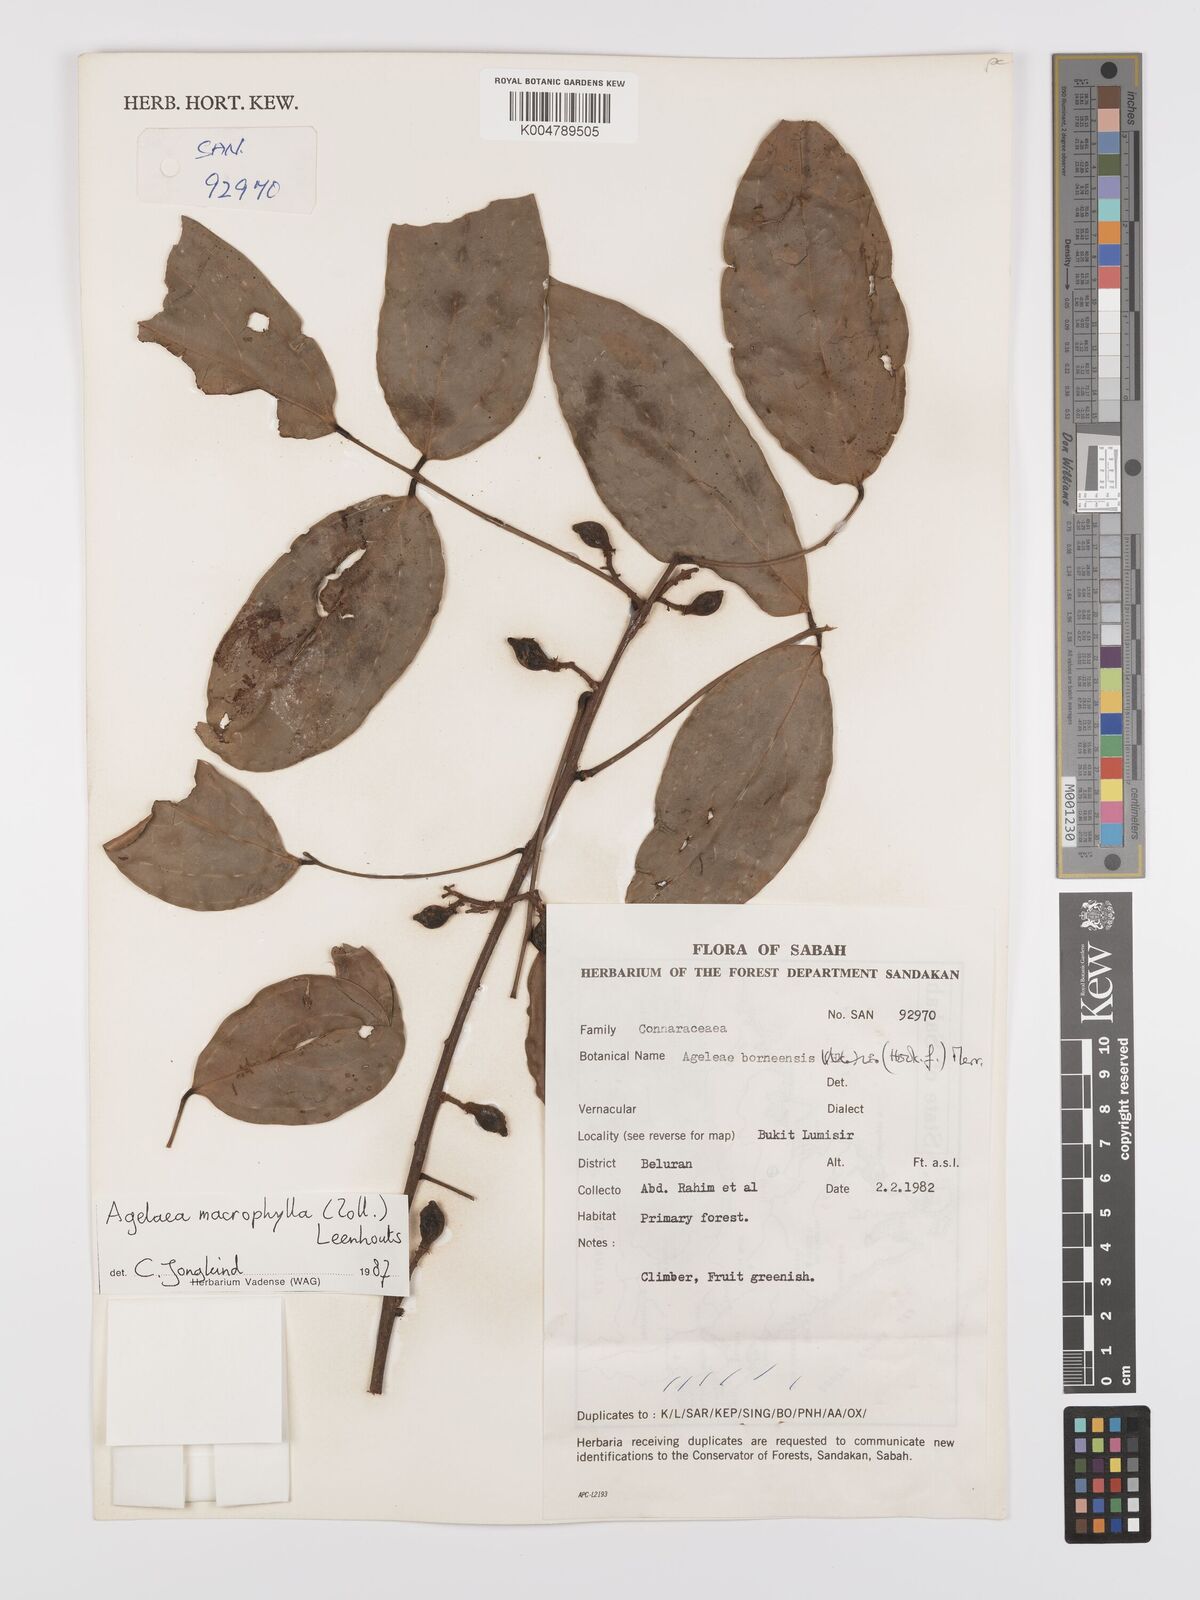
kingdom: Plantae
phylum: Tracheophyta
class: Magnoliopsida
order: Oxalidales
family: Connaraceae
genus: Agelaea
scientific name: Agelaea macrophylla
